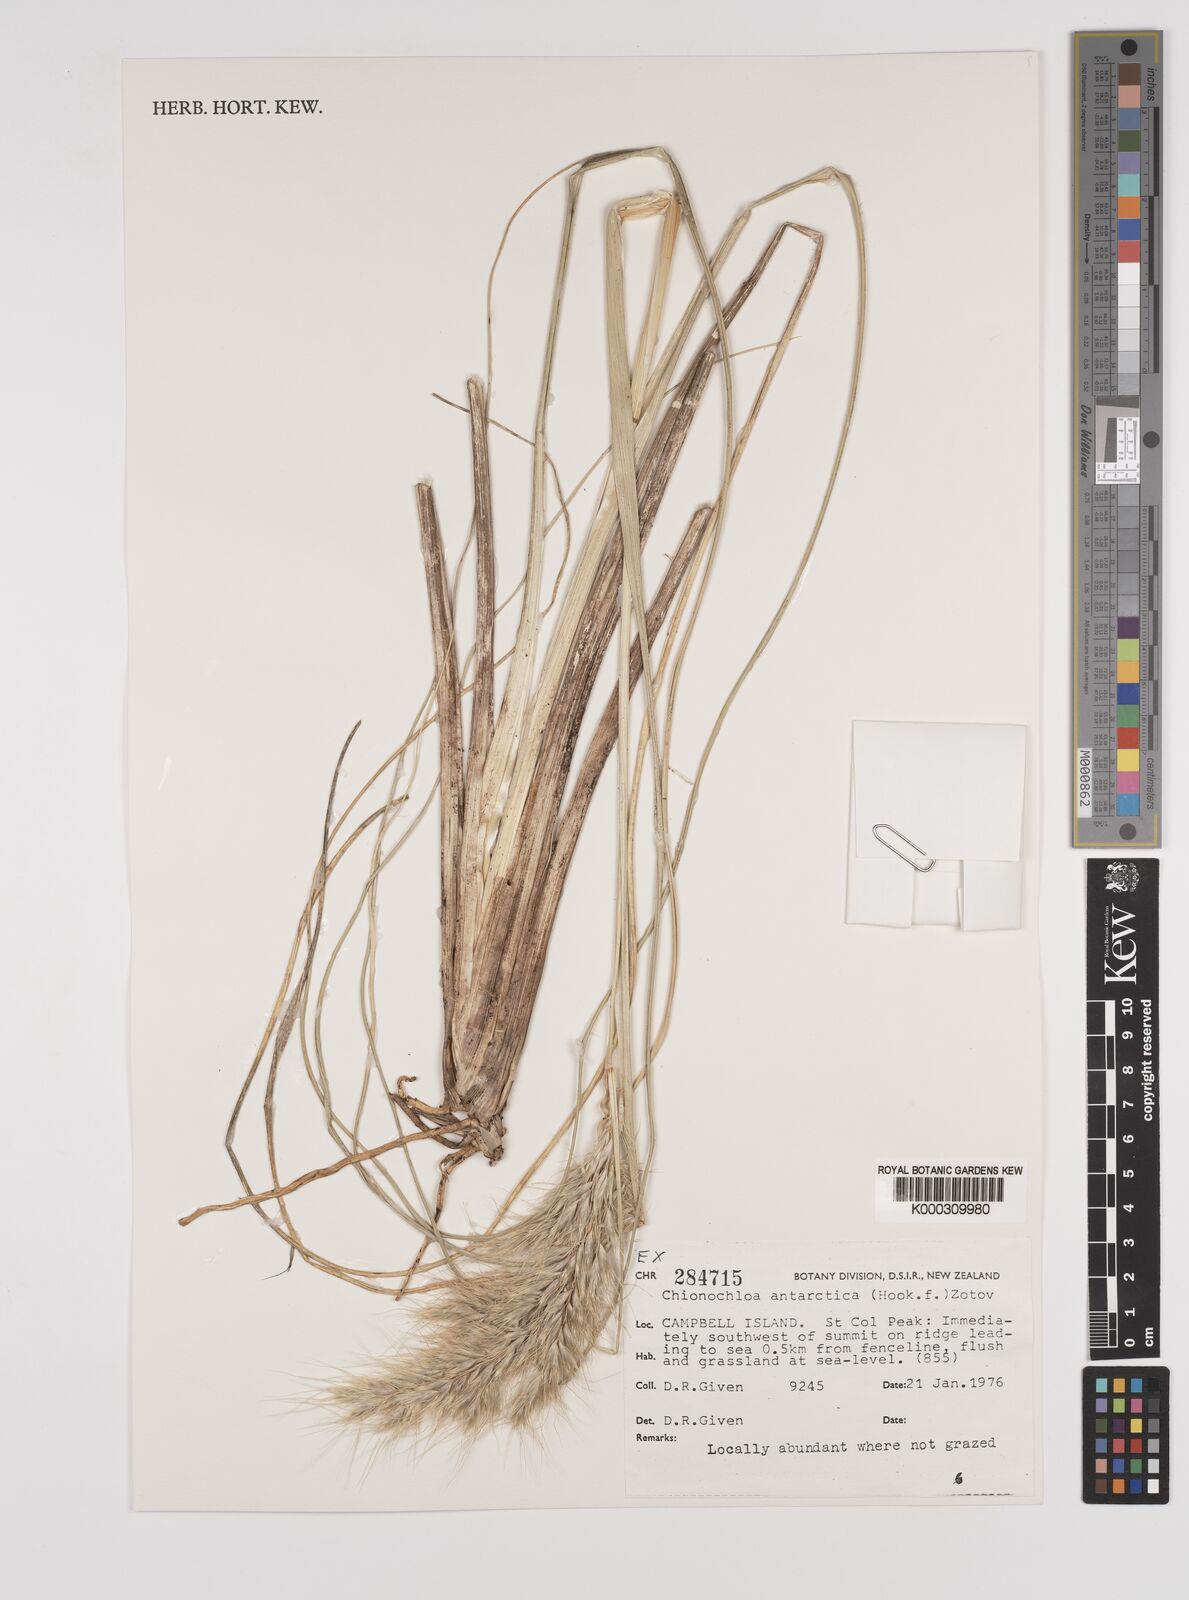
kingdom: Plantae
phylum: Tracheophyta
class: Liliopsida
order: Poales
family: Poaceae
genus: Chionochloa
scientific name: Chionochloa antarctica
